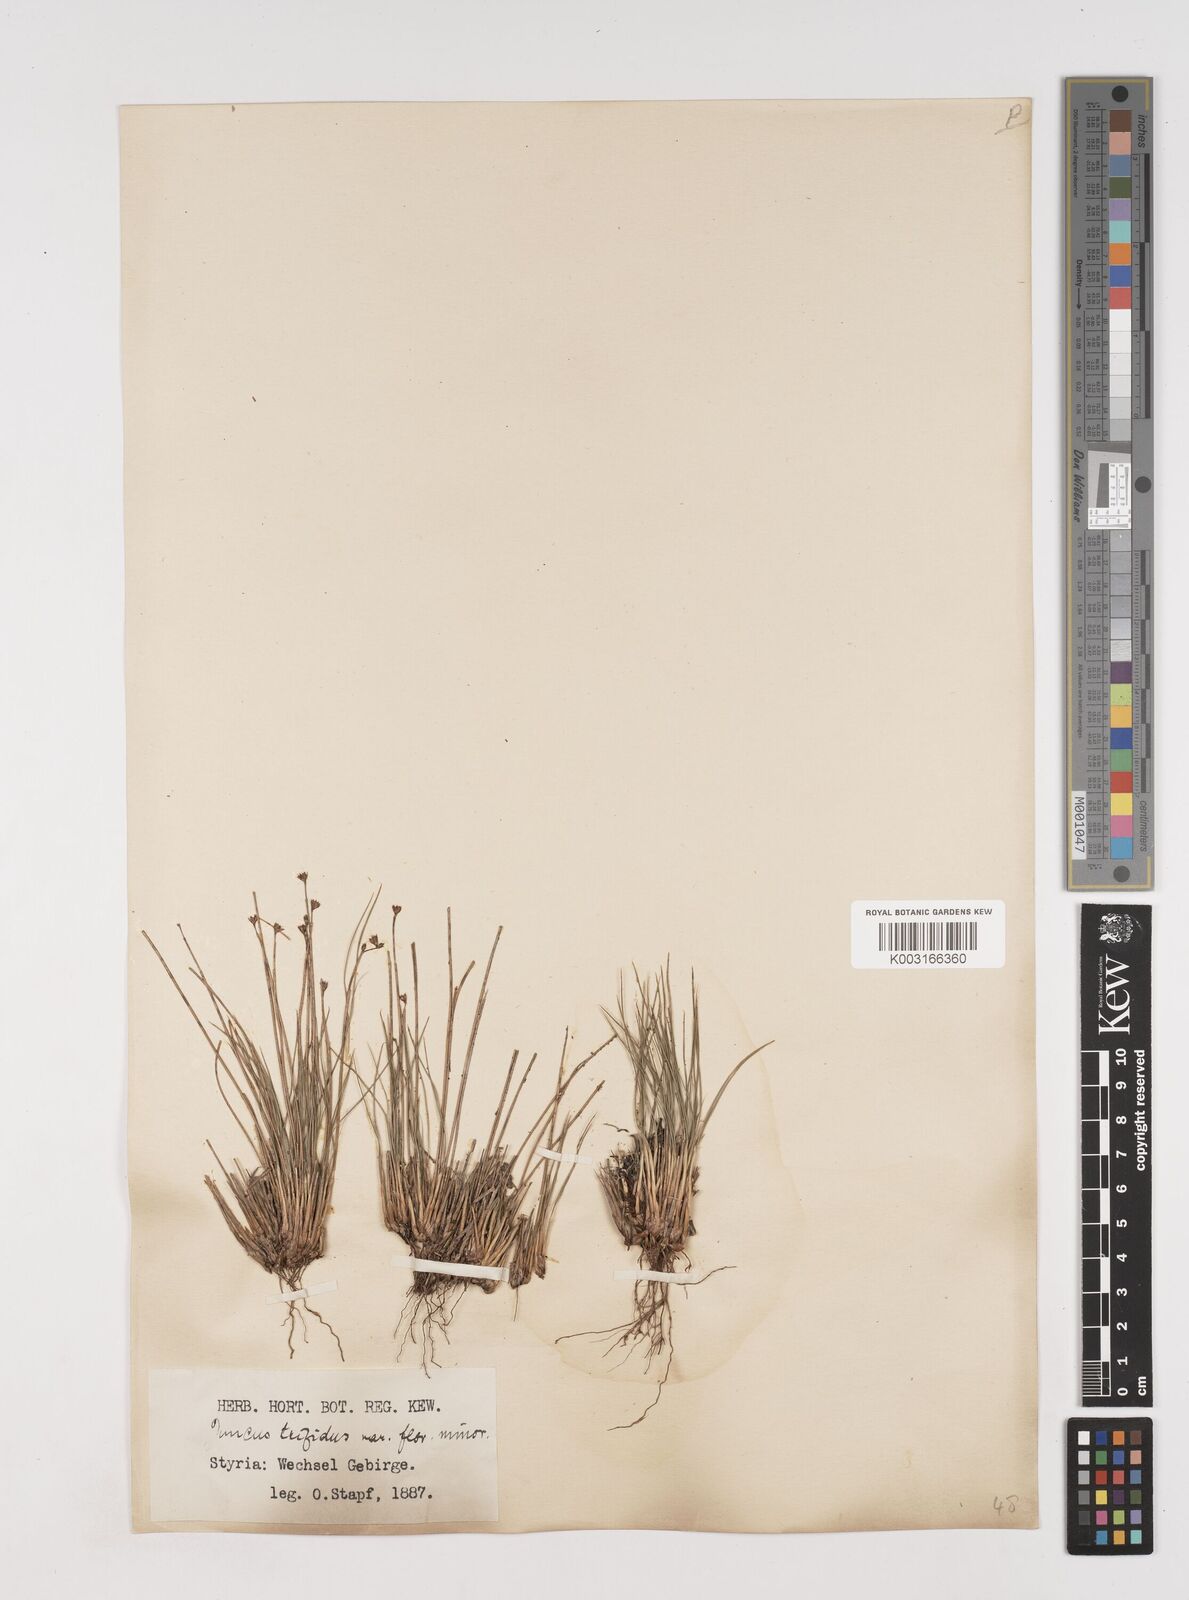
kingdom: Plantae
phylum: Tracheophyta
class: Liliopsida
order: Poales
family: Juncaceae
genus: Oreojuncus
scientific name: Oreojuncus trifidus
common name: Highland rush
